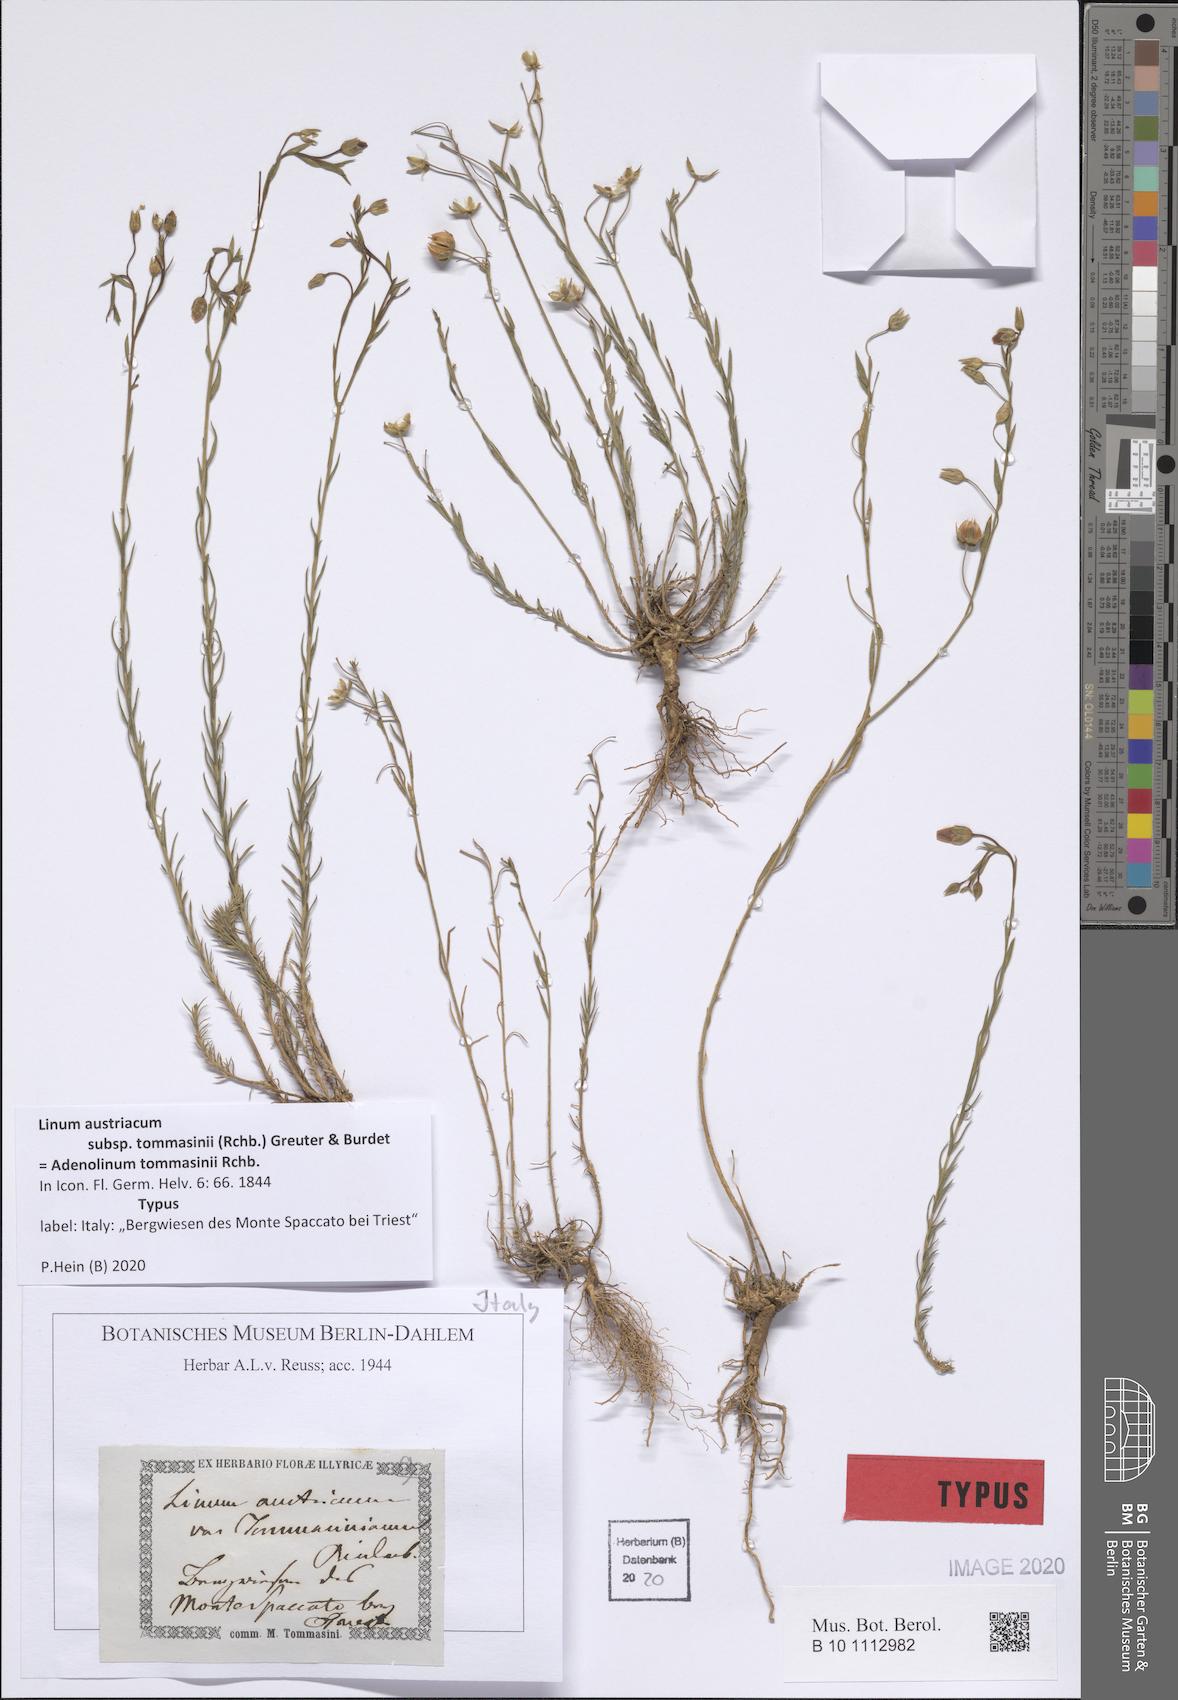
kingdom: Plantae
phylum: Tracheophyta
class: Magnoliopsida
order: Malpighiales
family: Linaceae
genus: Linum
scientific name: Linum austriacum
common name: Austrian flax
